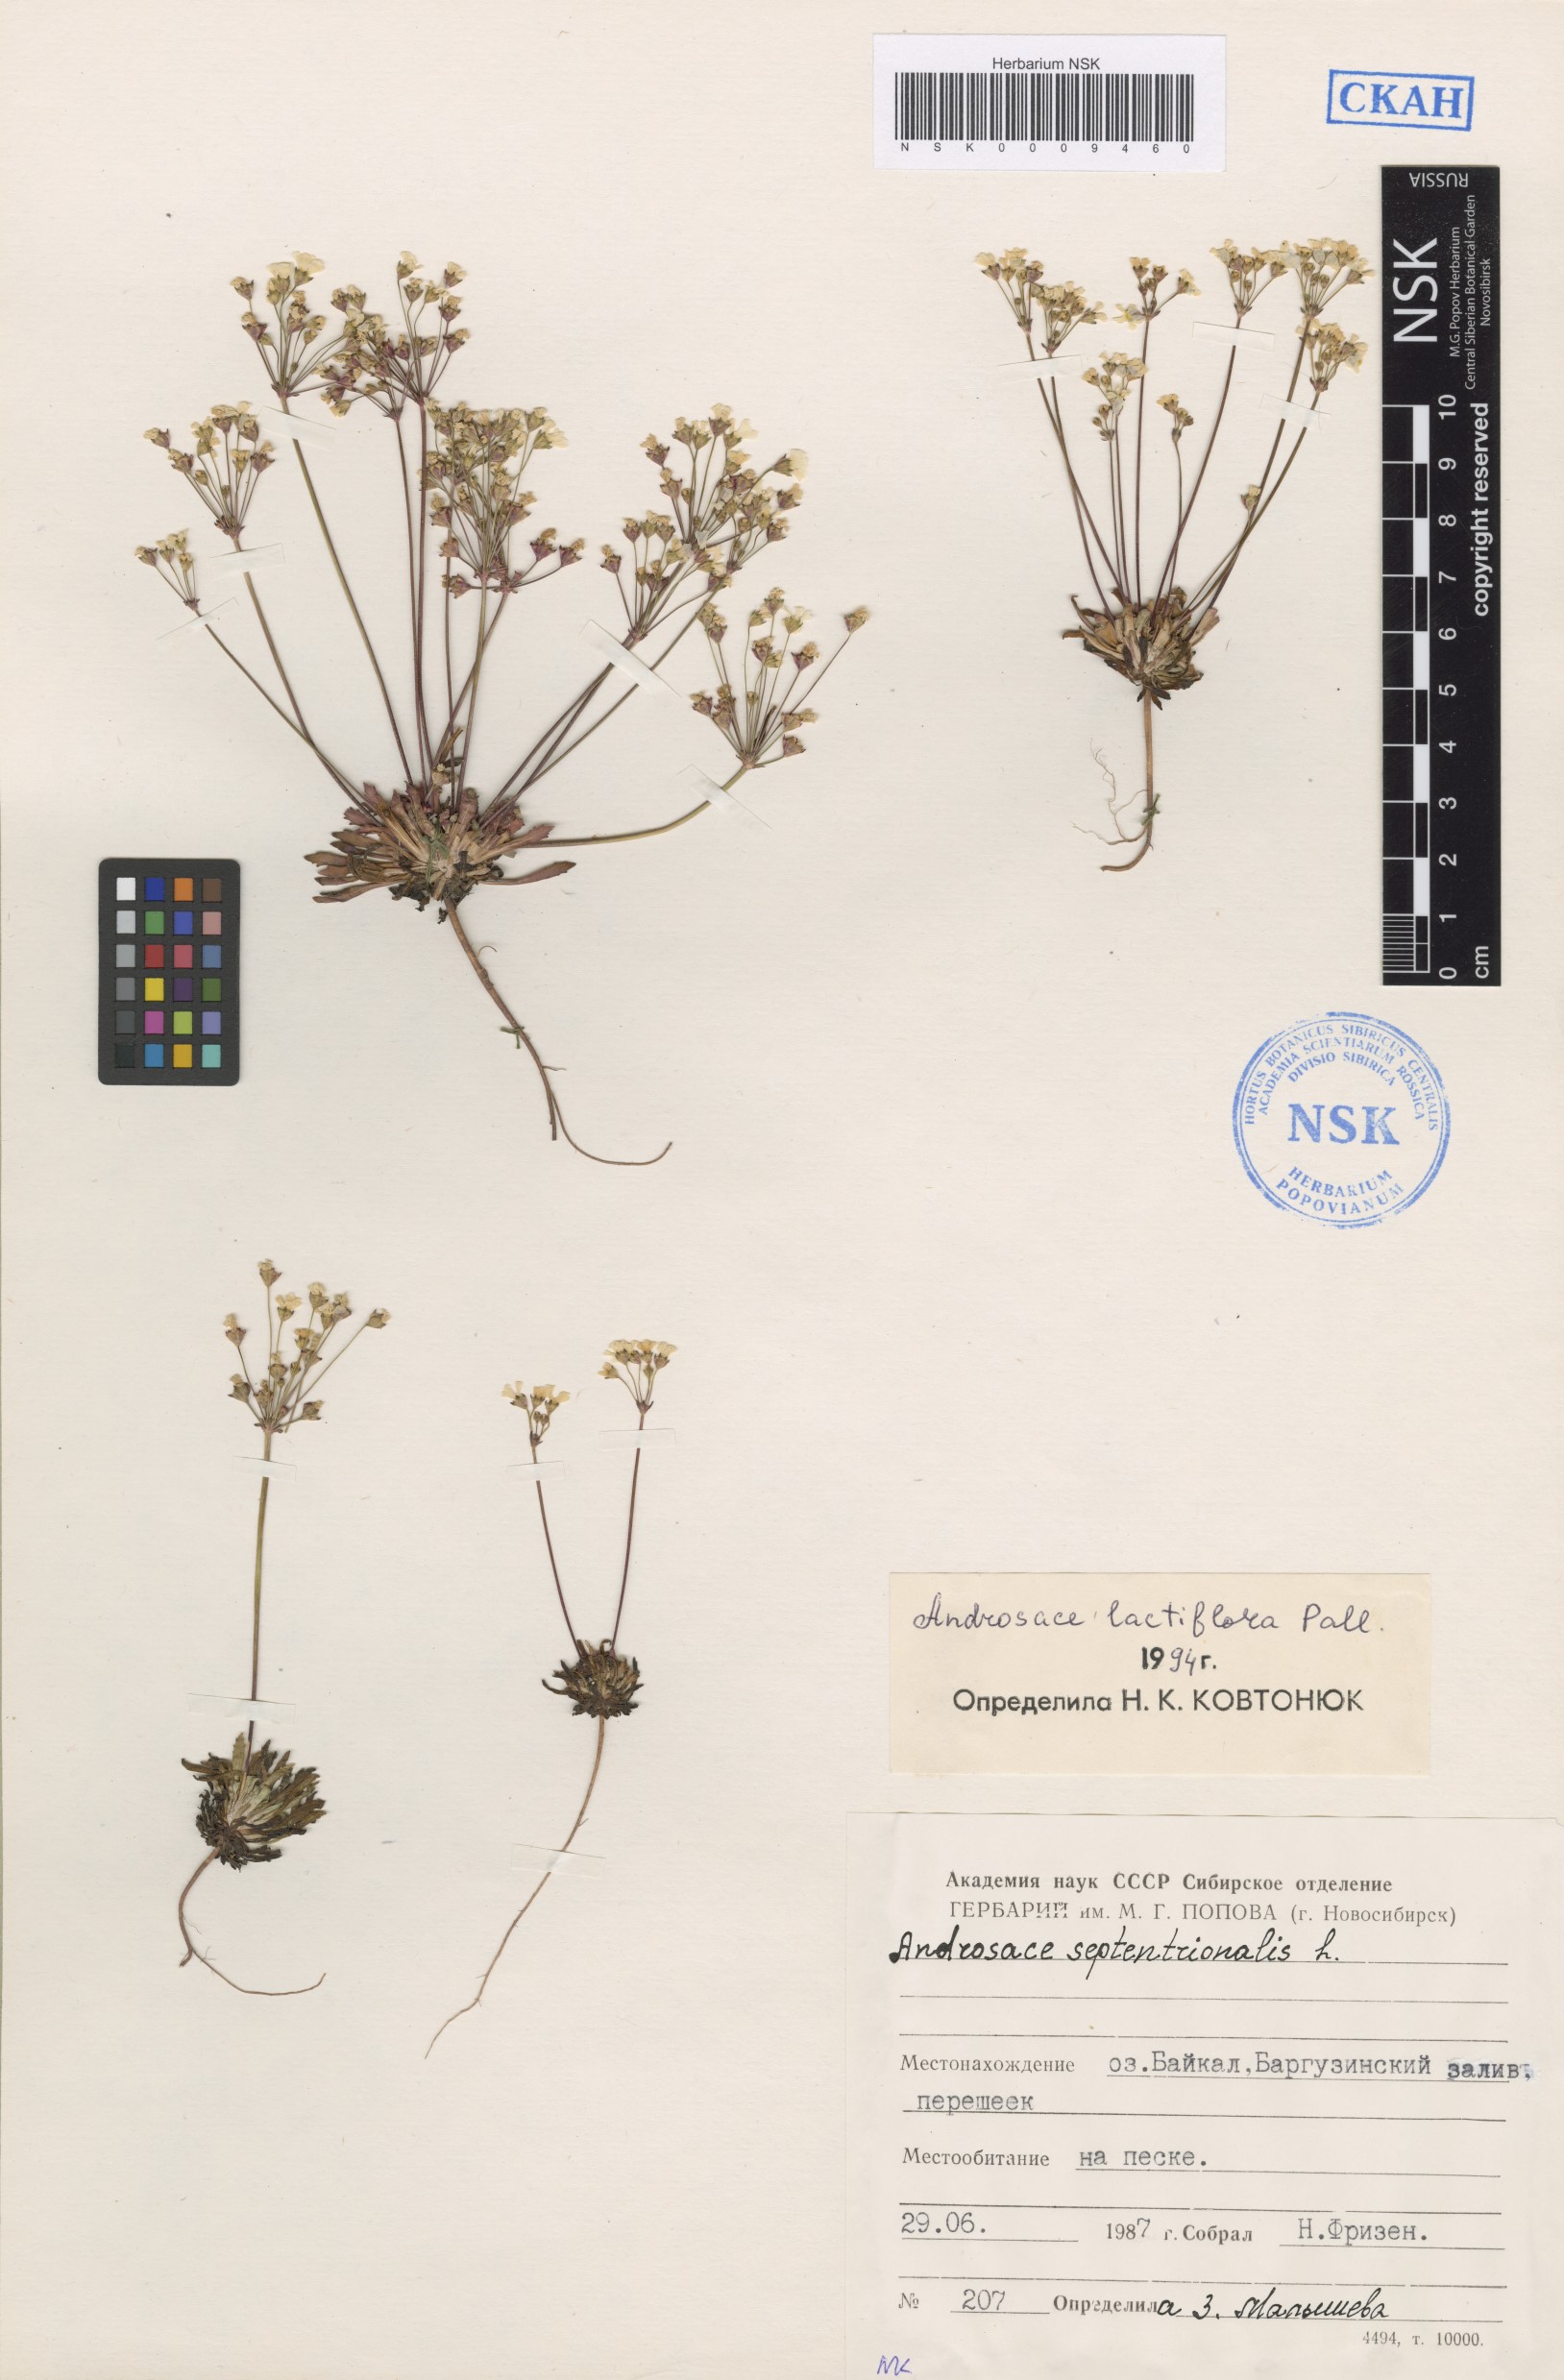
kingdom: Plantae
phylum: Tracheophyta
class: Magnoliopsida
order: Ericales
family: Primulaceae
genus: Androsace
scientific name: Androsace lactiflora
